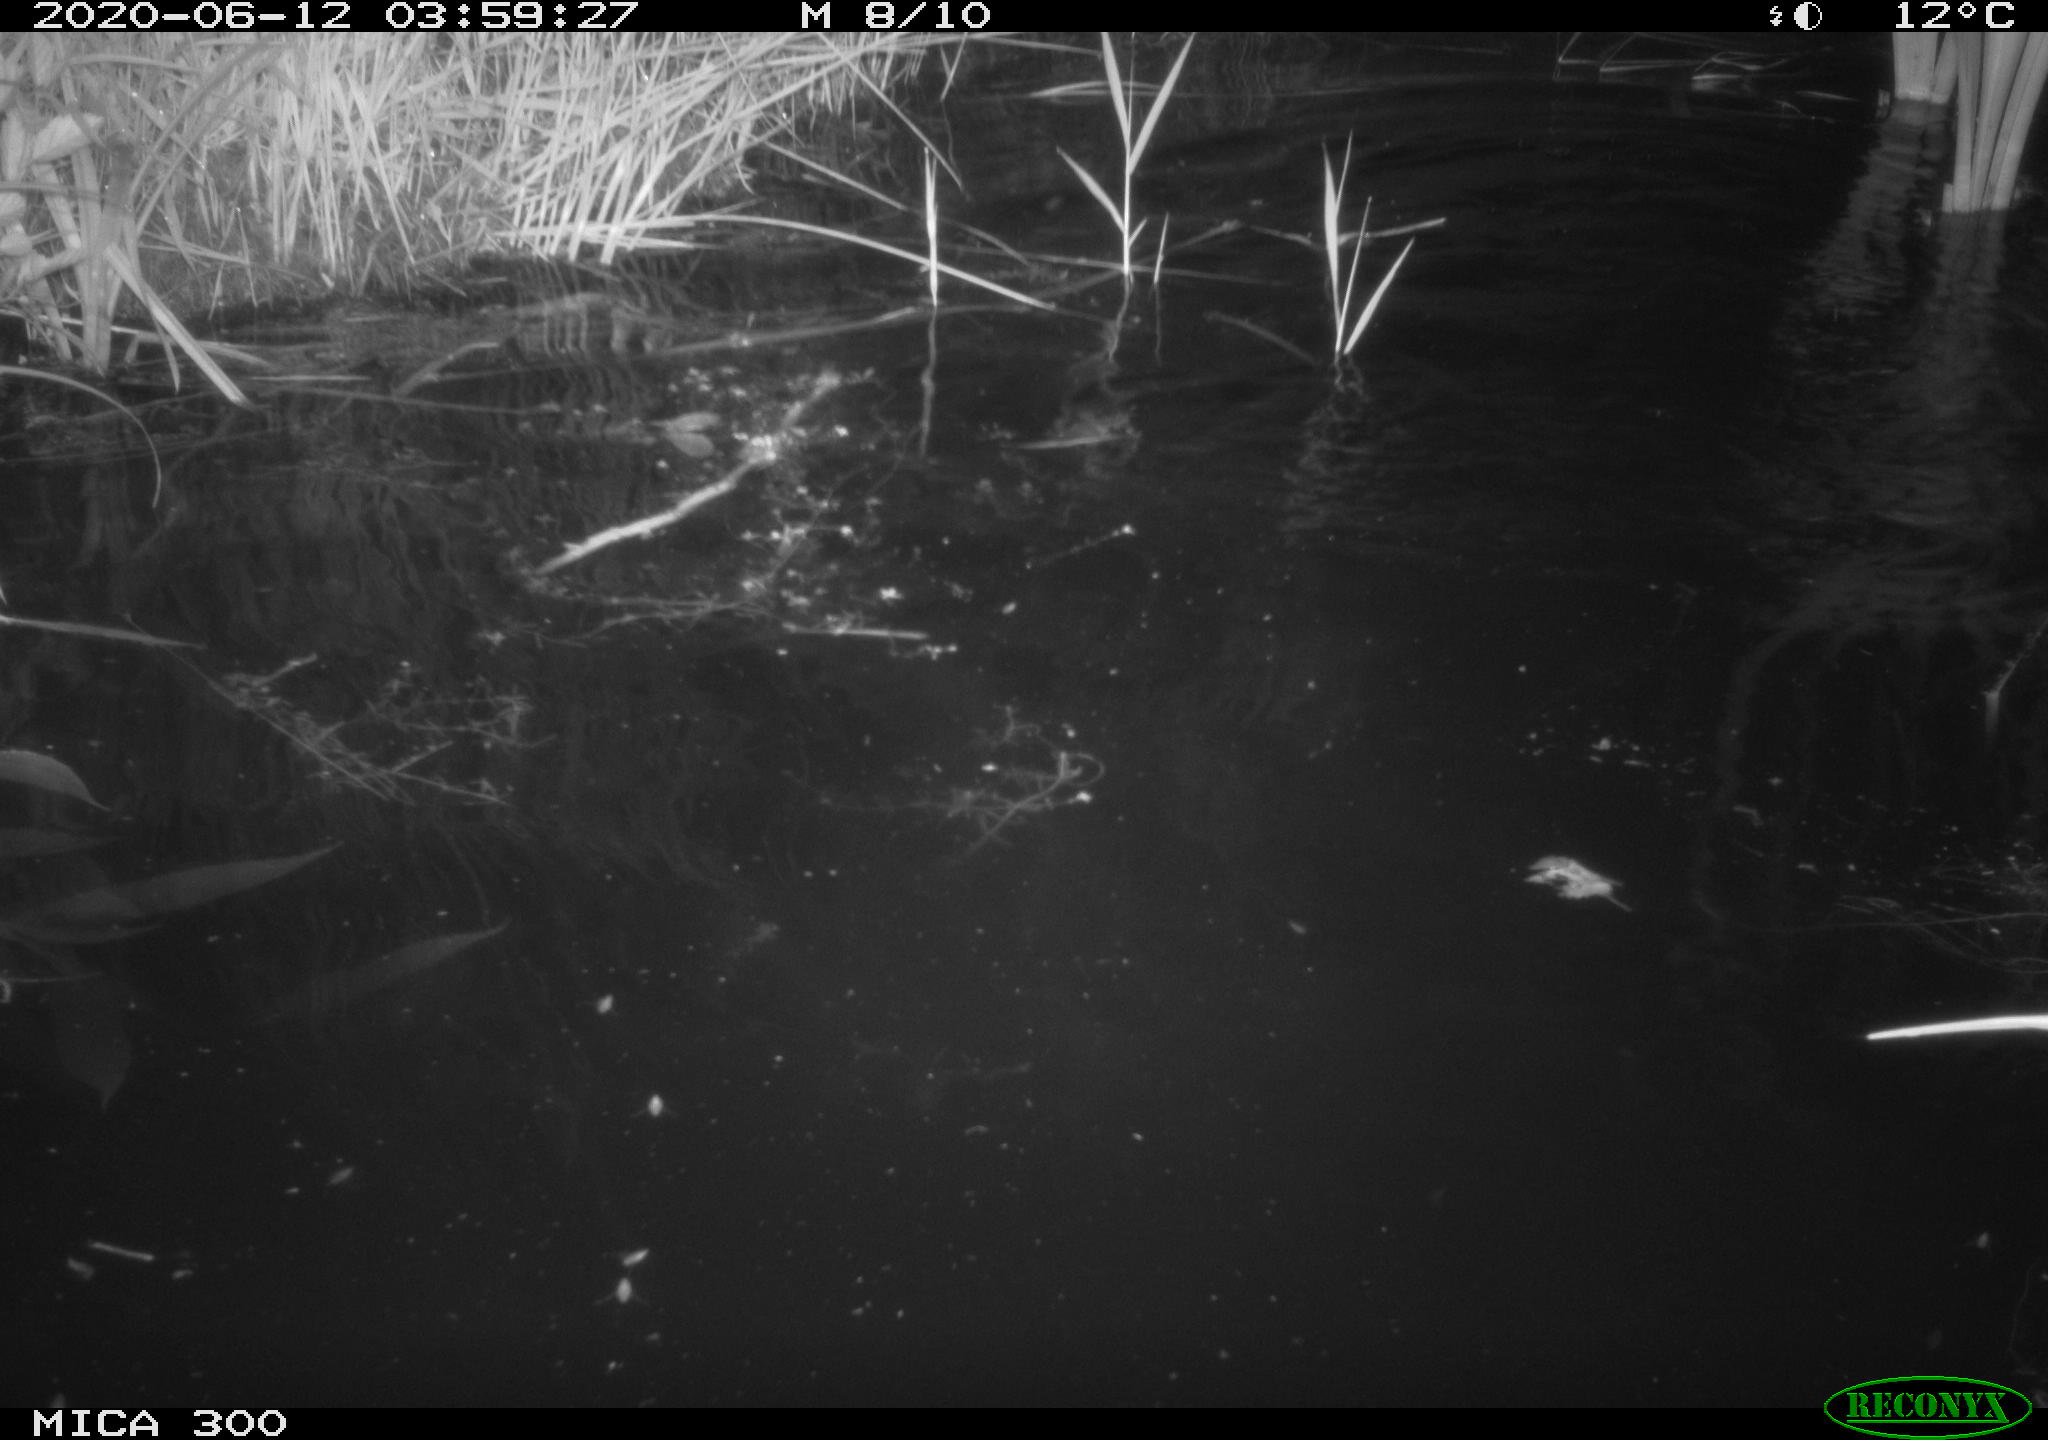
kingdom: Animalia
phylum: Chordata
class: Mammalia
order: Rodentia
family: Castoridae
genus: Castor
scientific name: Castor fiber
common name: Eurasian beaver
